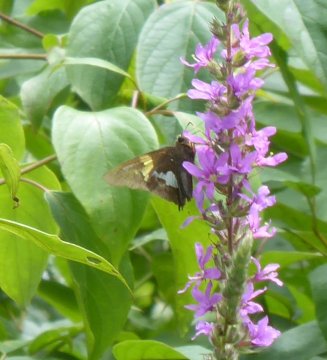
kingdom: Animalia
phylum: Arthropoda
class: Insecta
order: Lepidoptera
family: Hesperiidae
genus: Epargyreus
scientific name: Epargyreus clarus
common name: Silver-spotted Skipper
